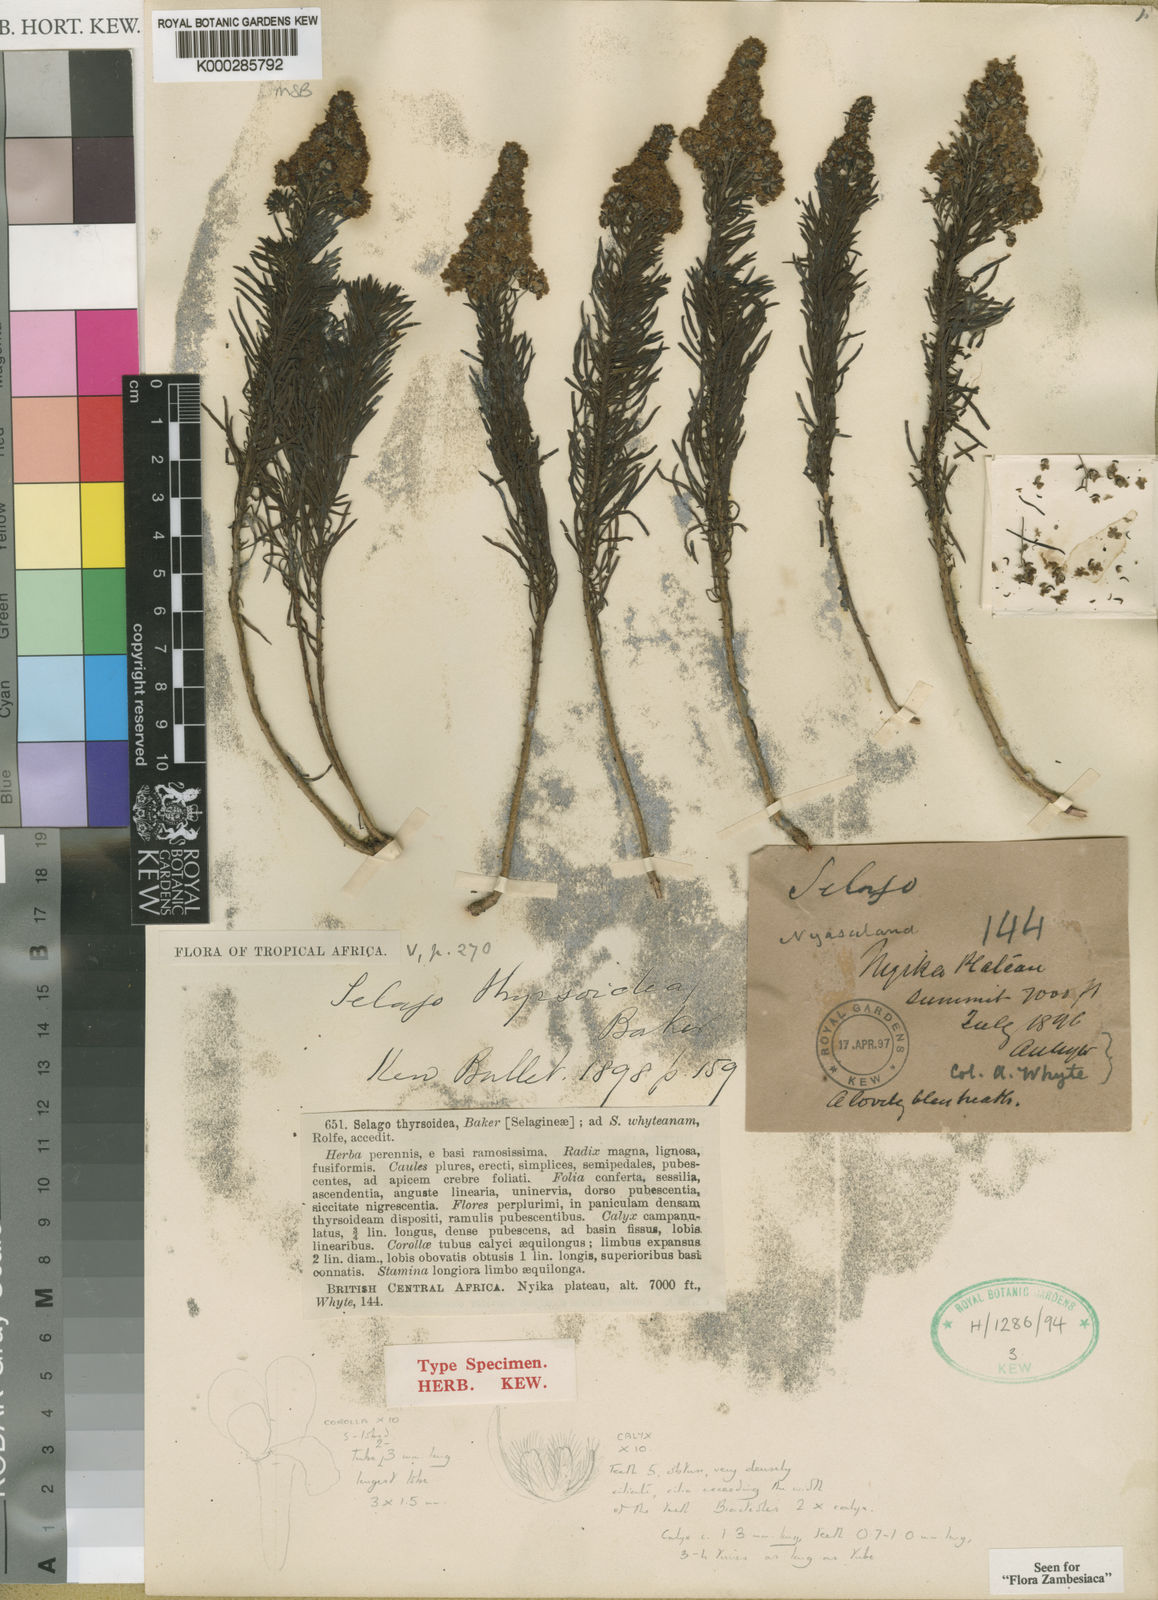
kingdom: Plantae
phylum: Tracheophyta
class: Magnoliopsida
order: Lamiales
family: Scrophulariaceae
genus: Selago
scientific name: Selago thyrsoidea
